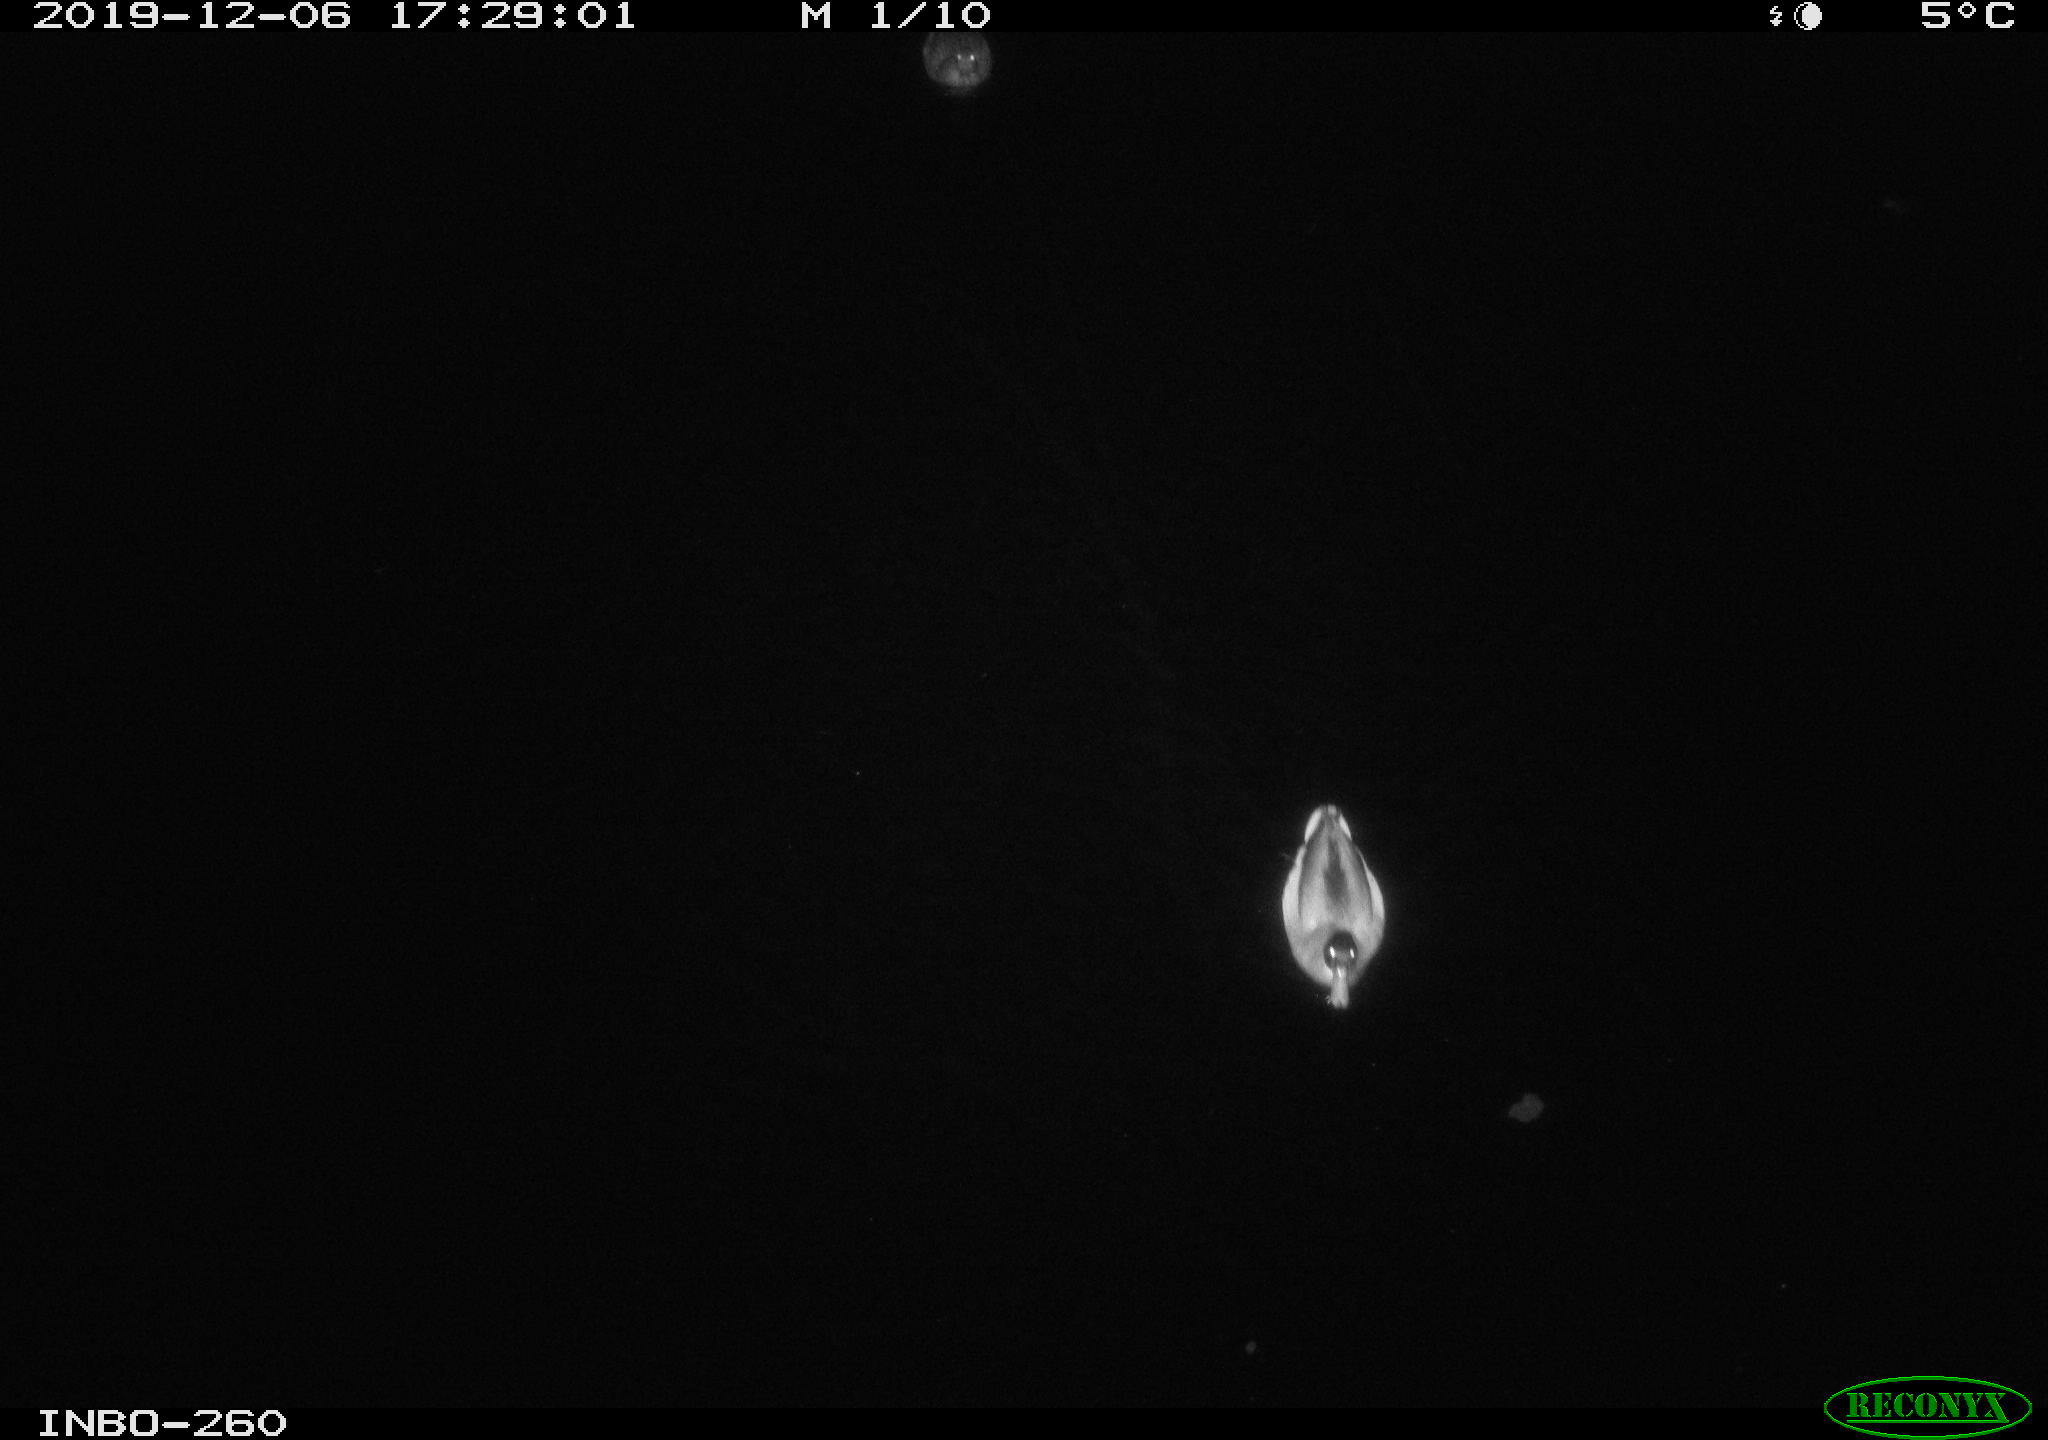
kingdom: Animalia
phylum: Chordata
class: Aves
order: Anseriformes
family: Anatidae
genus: Anas
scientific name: Anas platyrhynchos
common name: Mallard
